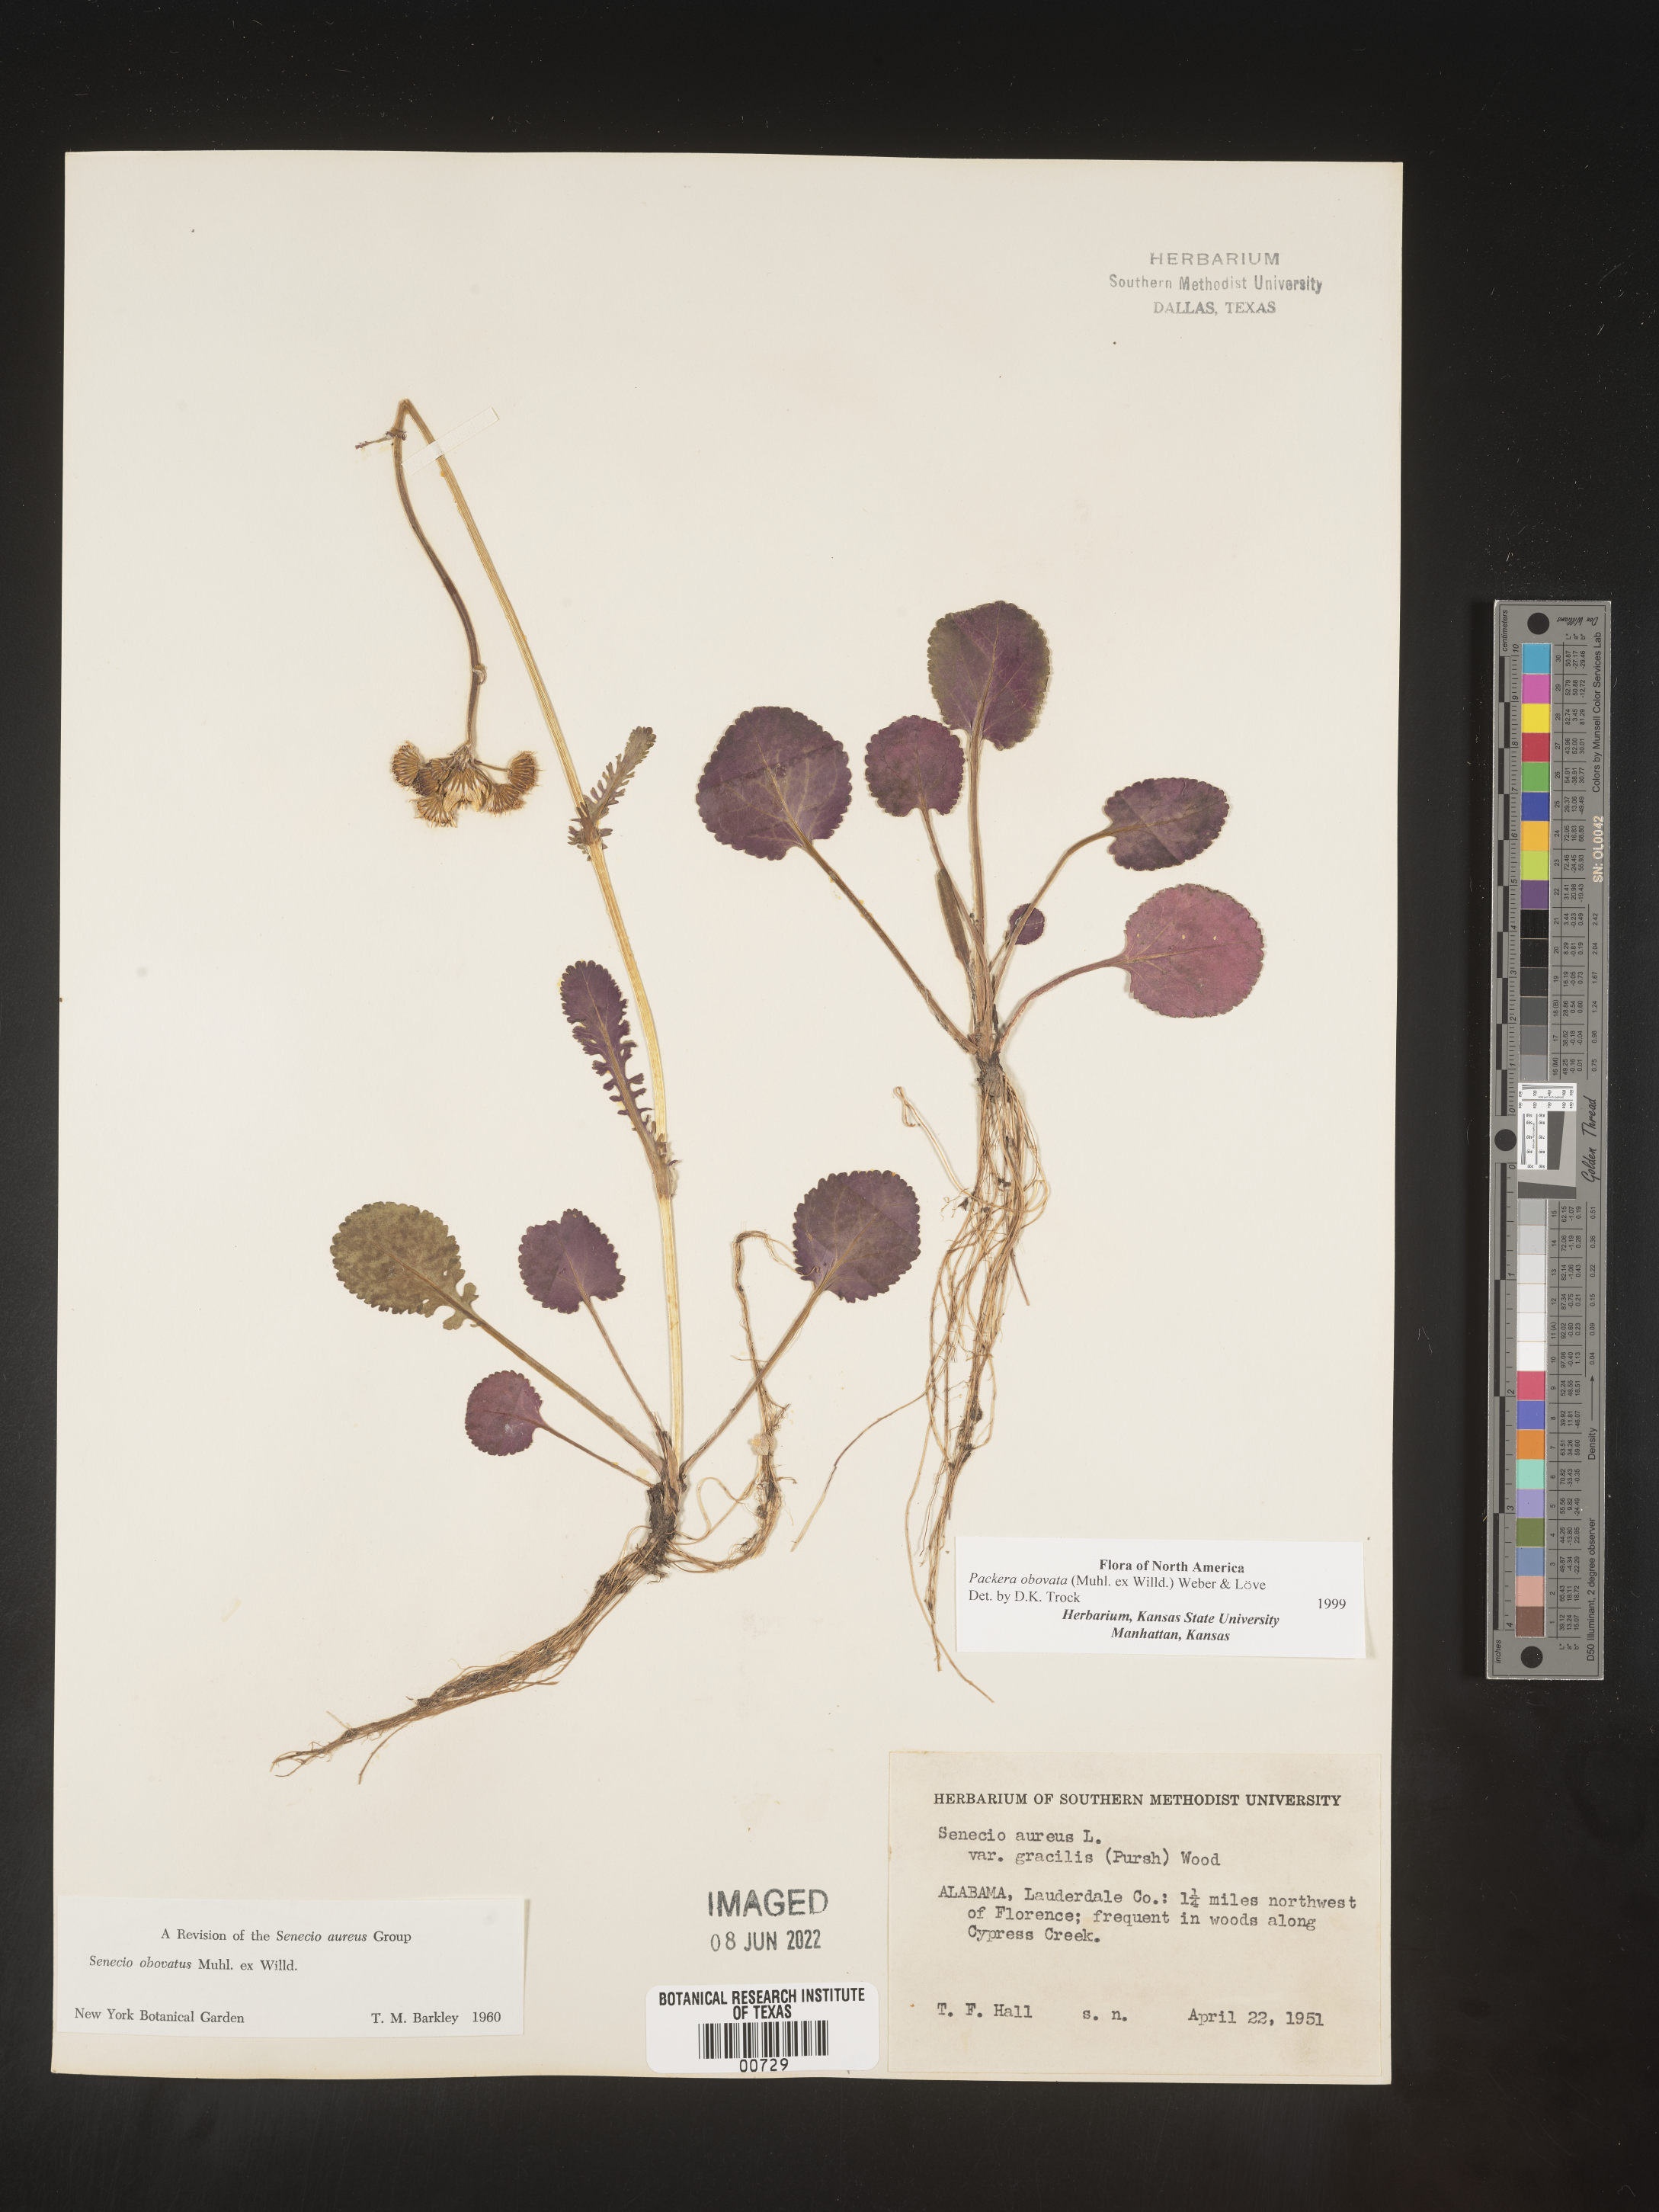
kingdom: Plantae
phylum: Tracheophyta
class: Magnoliopsida
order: Asterales
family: Asteraceae
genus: Packera
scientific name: Packera obovata
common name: Round-leaf ragwort
